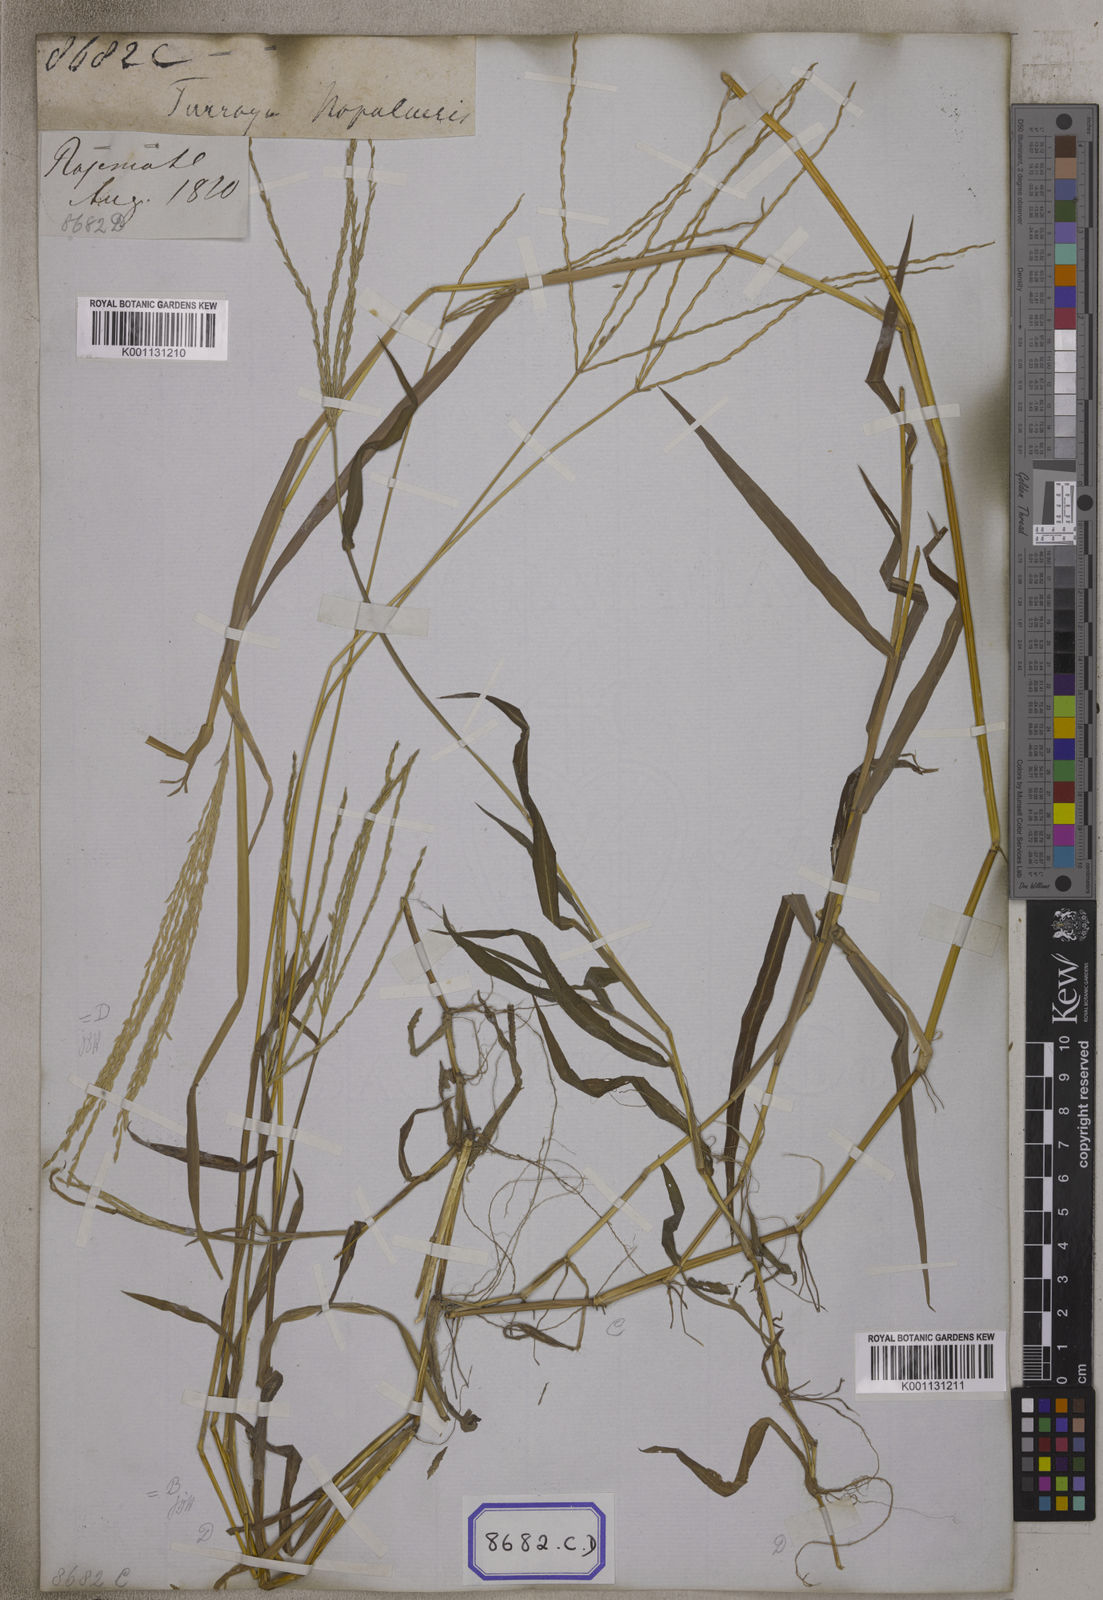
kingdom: Plantae
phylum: Tracheophyta
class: Liliopsida
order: Poales
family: Poaceae
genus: Digitaria
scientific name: Digitaria ciliaris
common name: Tropical finger-grass
